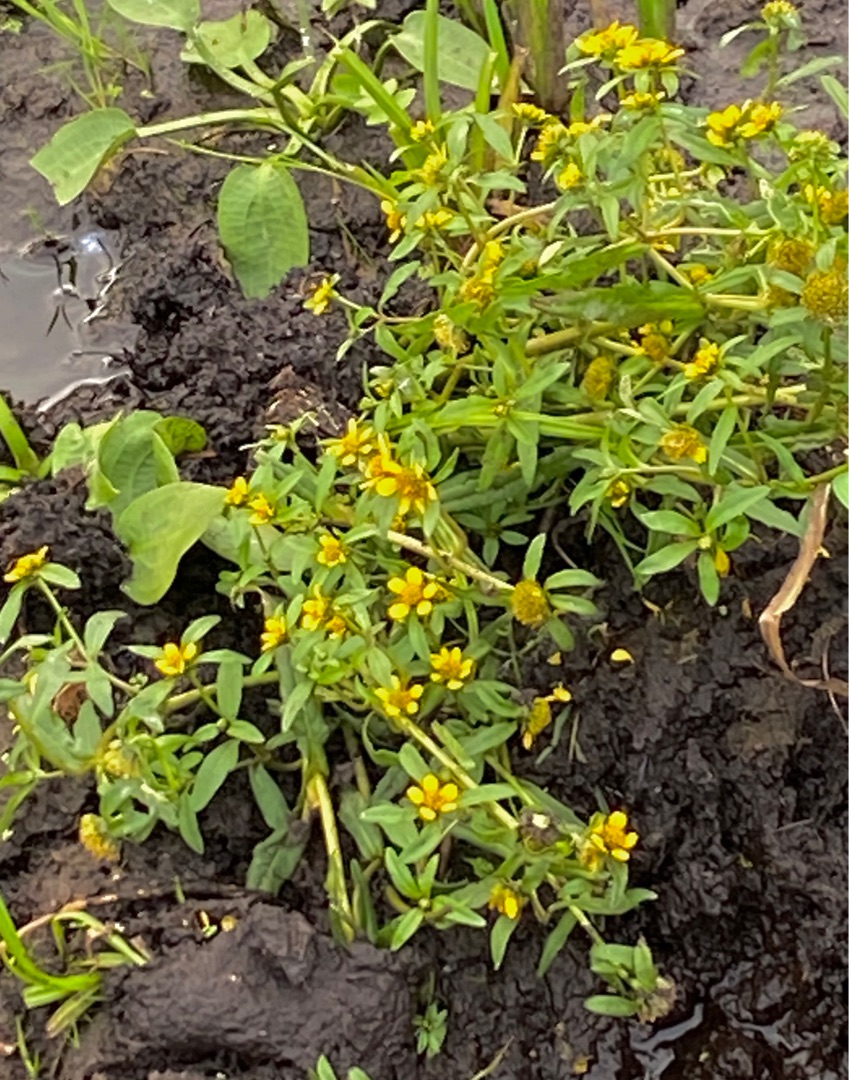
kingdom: Plantae
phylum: Tracheophyta
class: Magnoliopsida
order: Asterales
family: Asteraceae
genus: Bidens
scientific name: Bidens cernua
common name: Nikkende brøndsel
